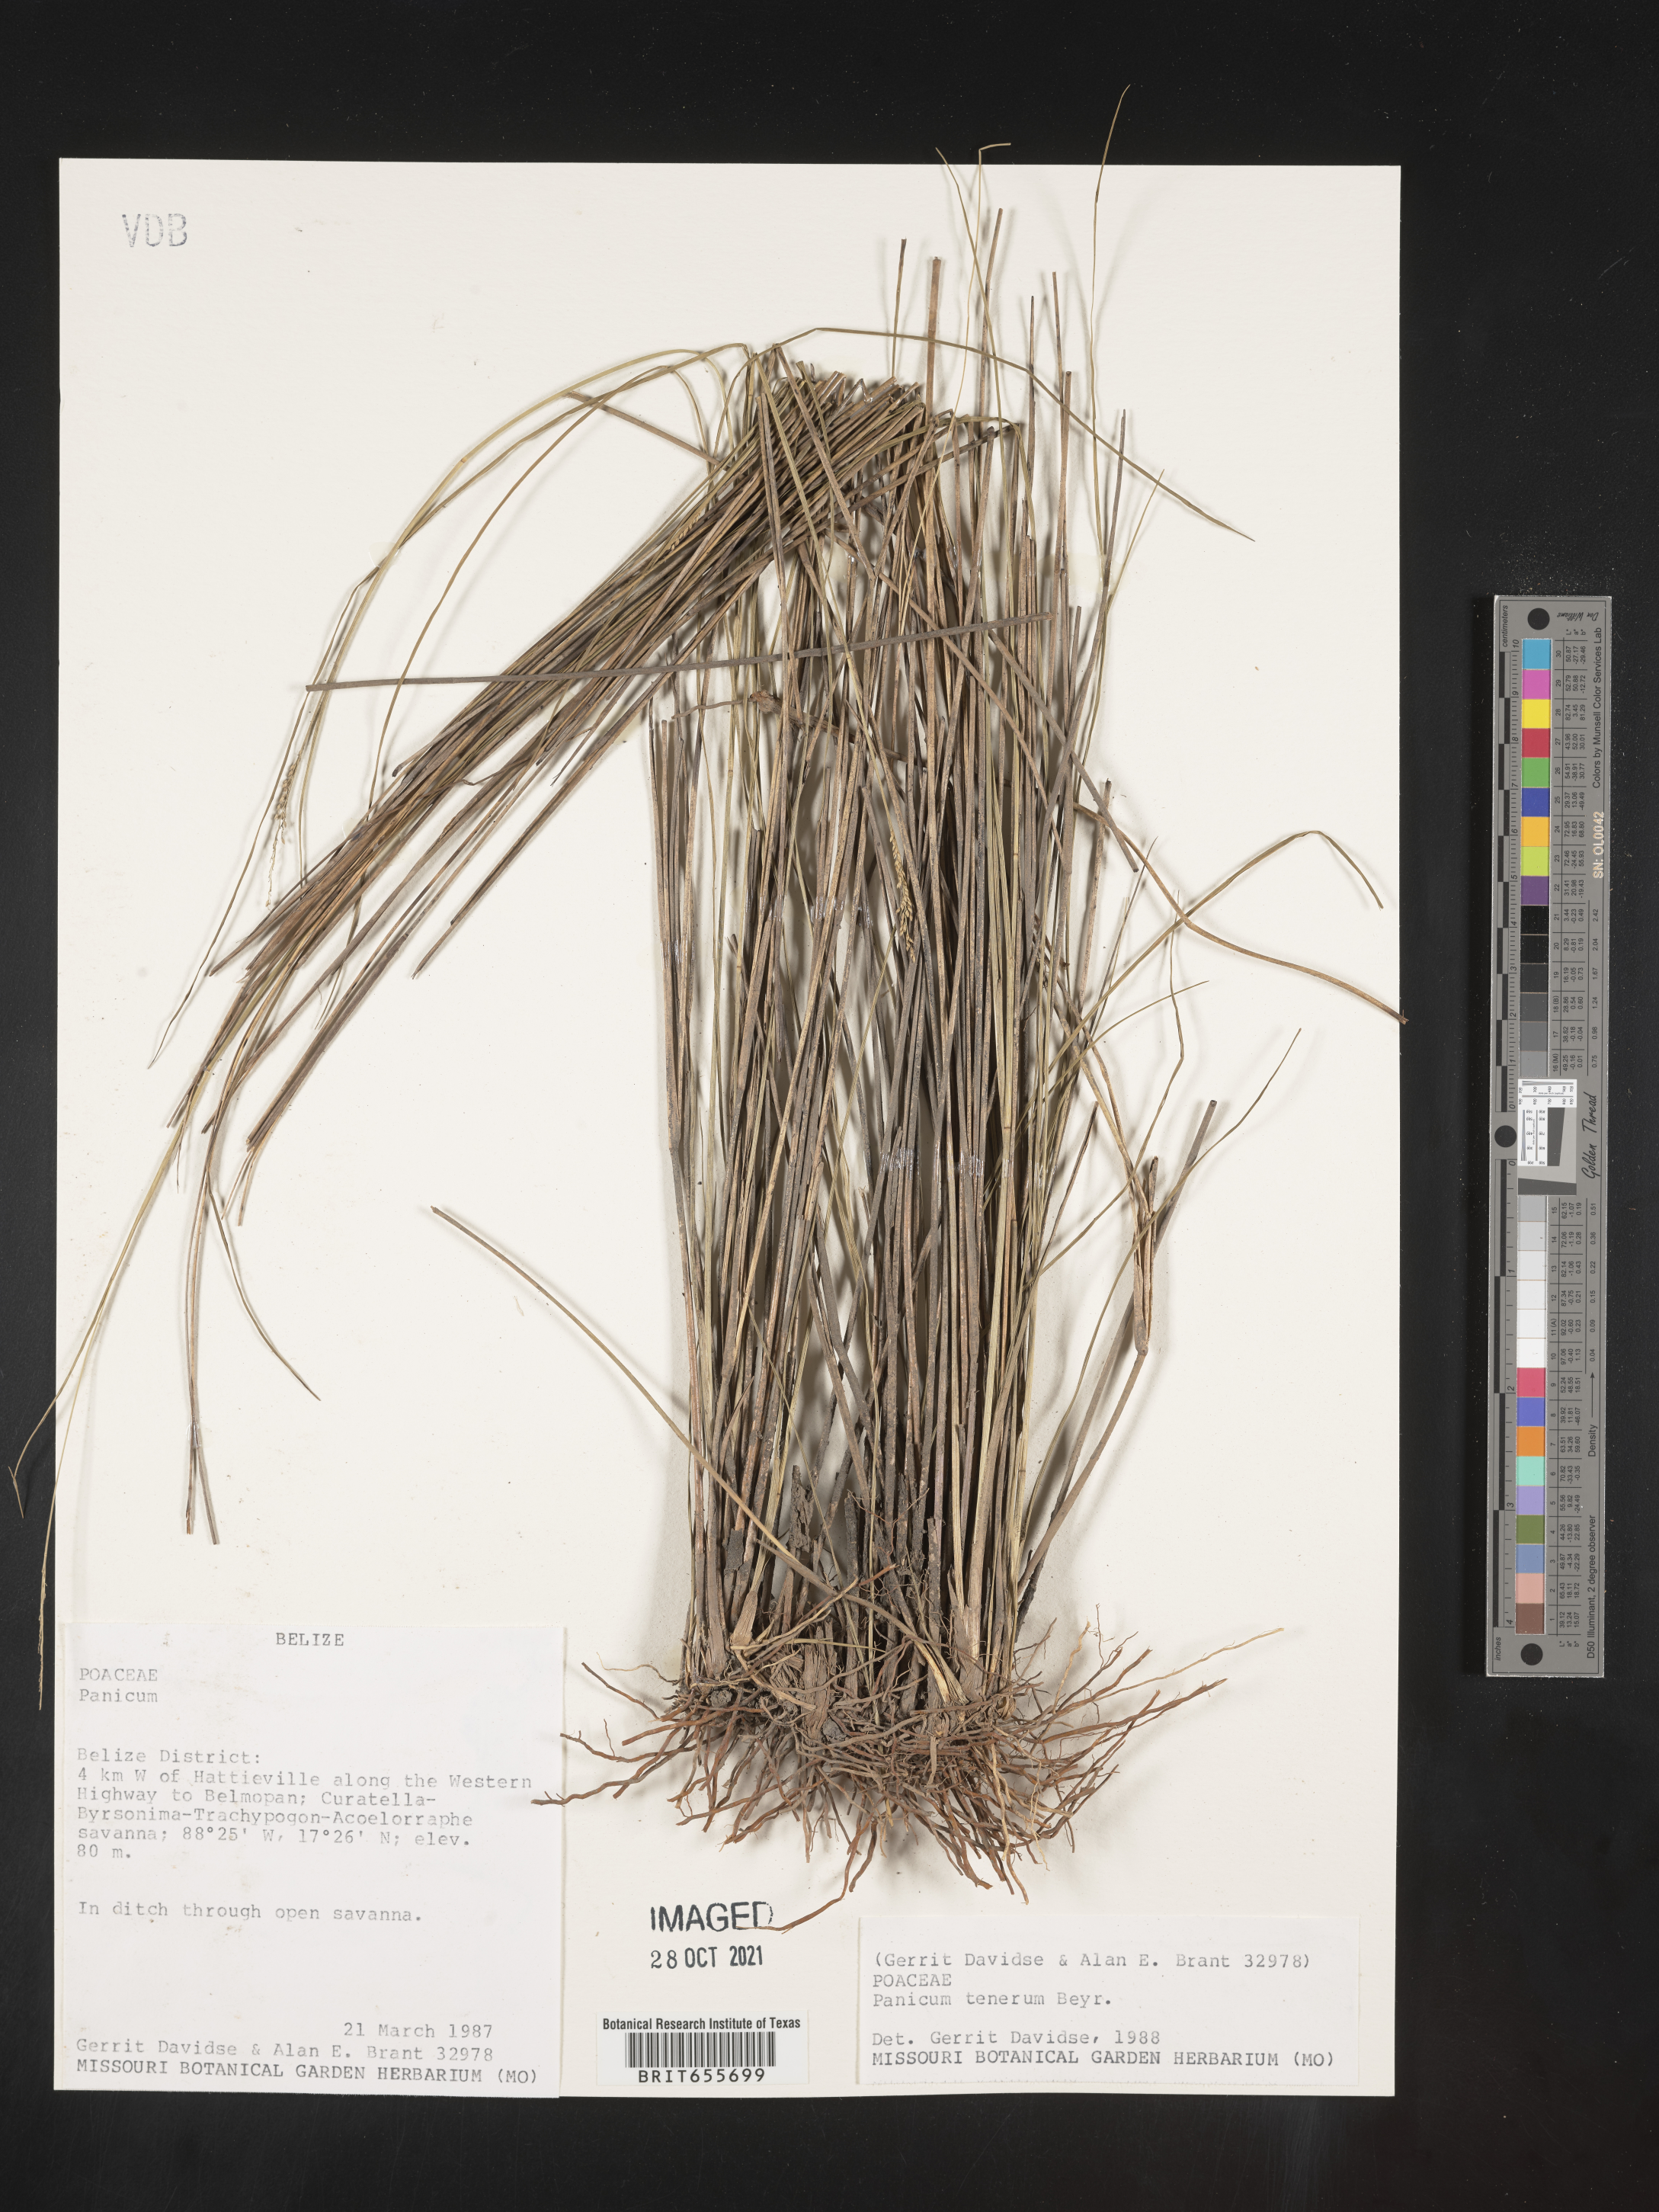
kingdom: Plantae
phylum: Tracheophyta
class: Liliopsida
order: Poales
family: Poaceae
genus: Panicum
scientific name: Panicum
